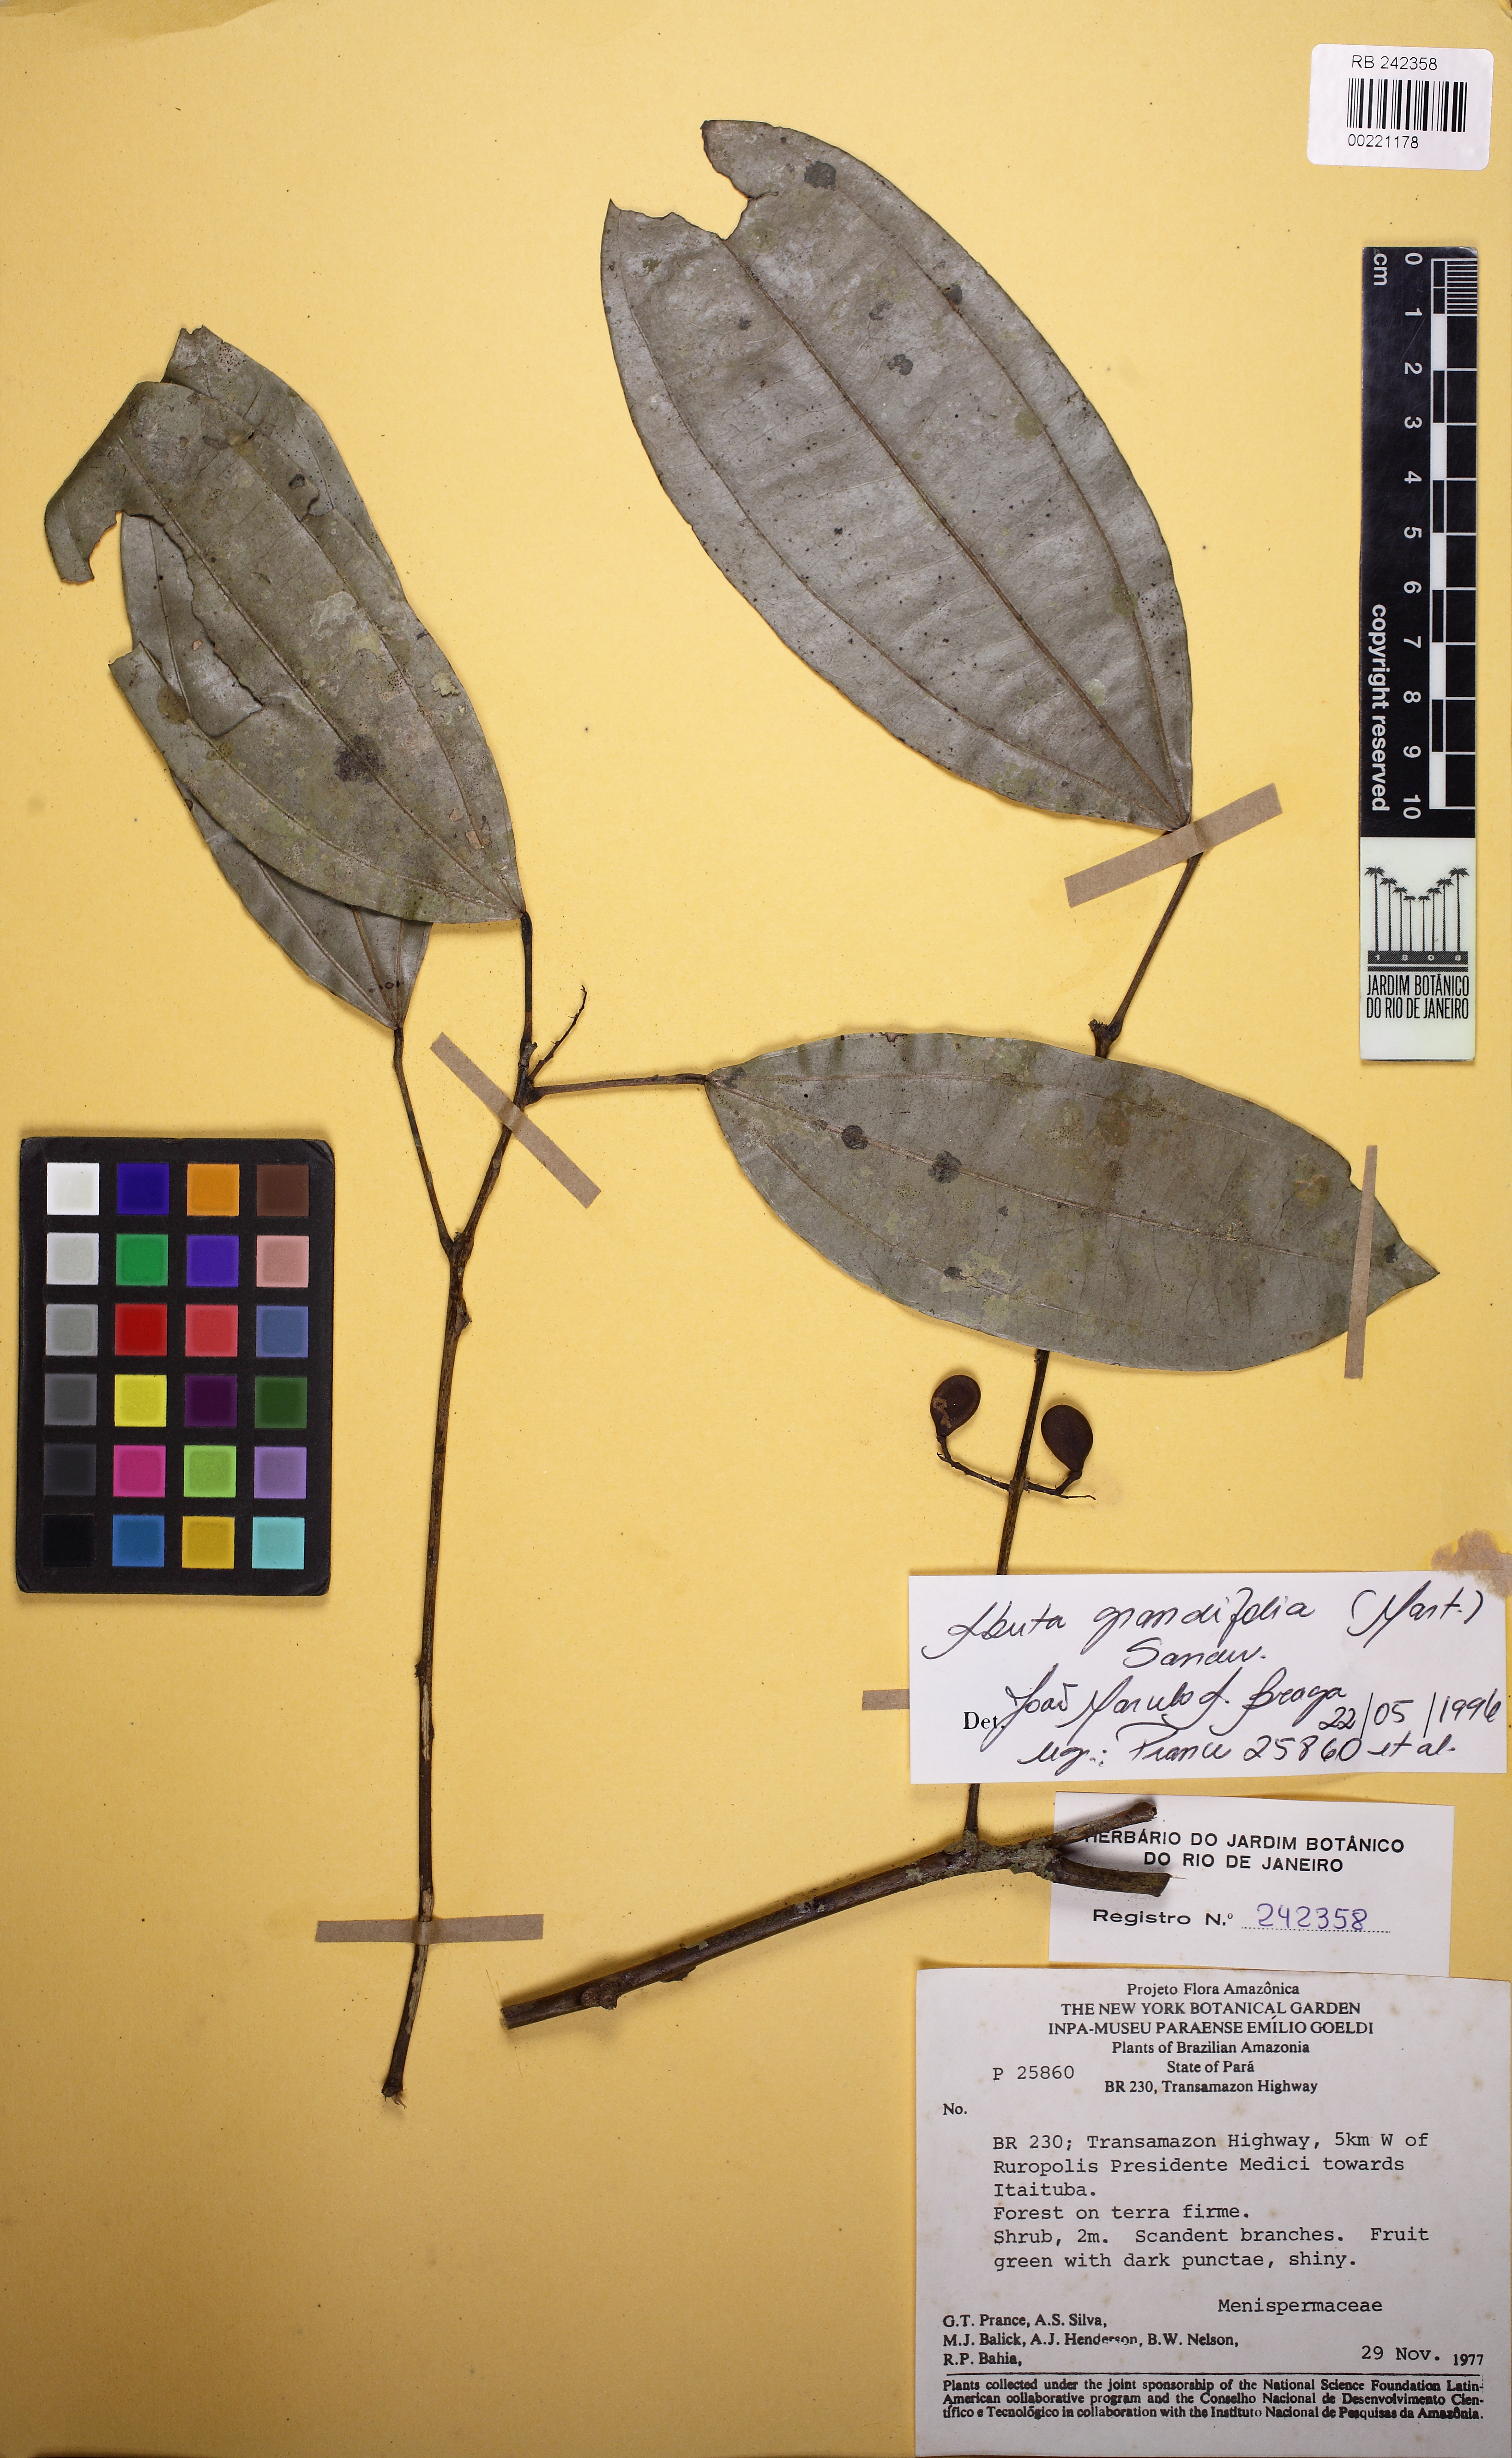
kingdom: Plantae
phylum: Tracheophyta
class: Magnoliopsida
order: Ranunculales
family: Menispermaceae
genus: Abuta
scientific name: Abuta grandifolia
